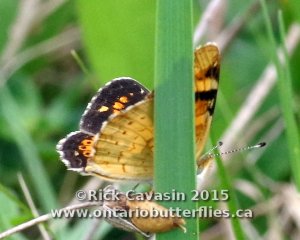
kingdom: Animalia
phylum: Arthropoda
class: Insecta
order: Lepidoptera
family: Nymphalidae
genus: Phyciodes
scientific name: Phyciodes batesii
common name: Tawny Crescent
